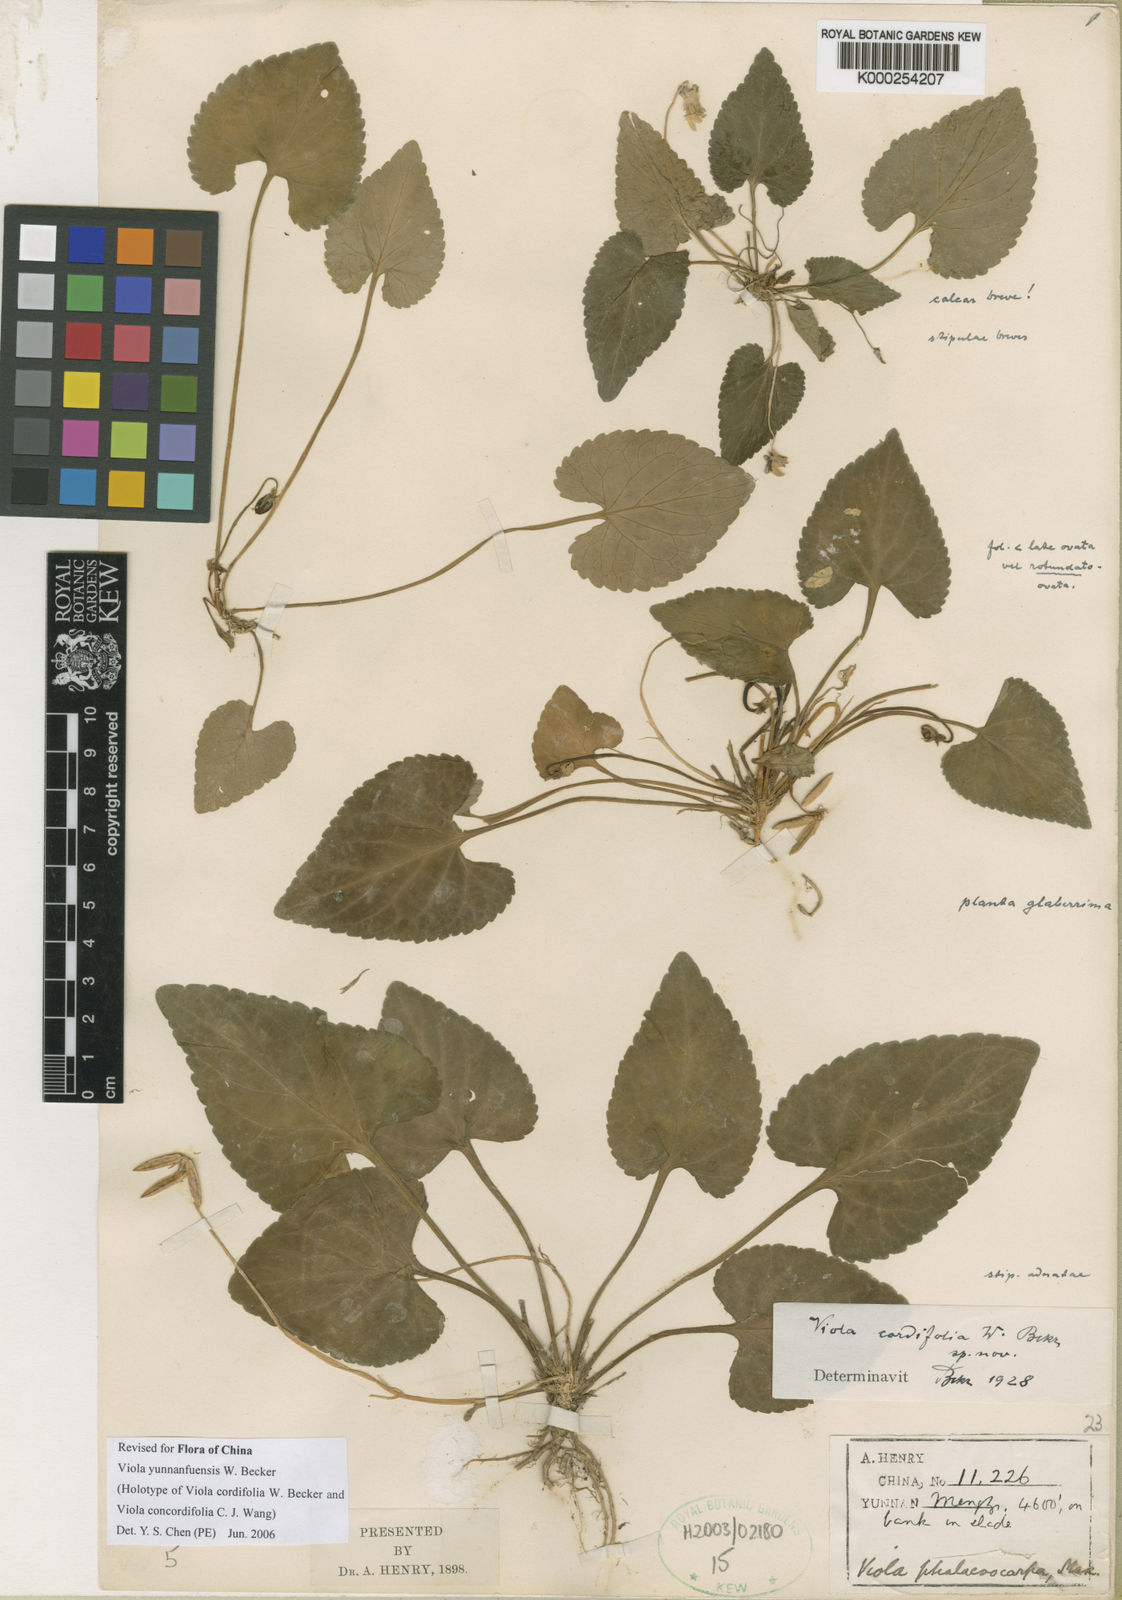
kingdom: Plantae
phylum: Tracheophyta
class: Magnoliopsida
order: Malpighiales
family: Violaceae
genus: Viola
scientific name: Viola yunnanfuensis
